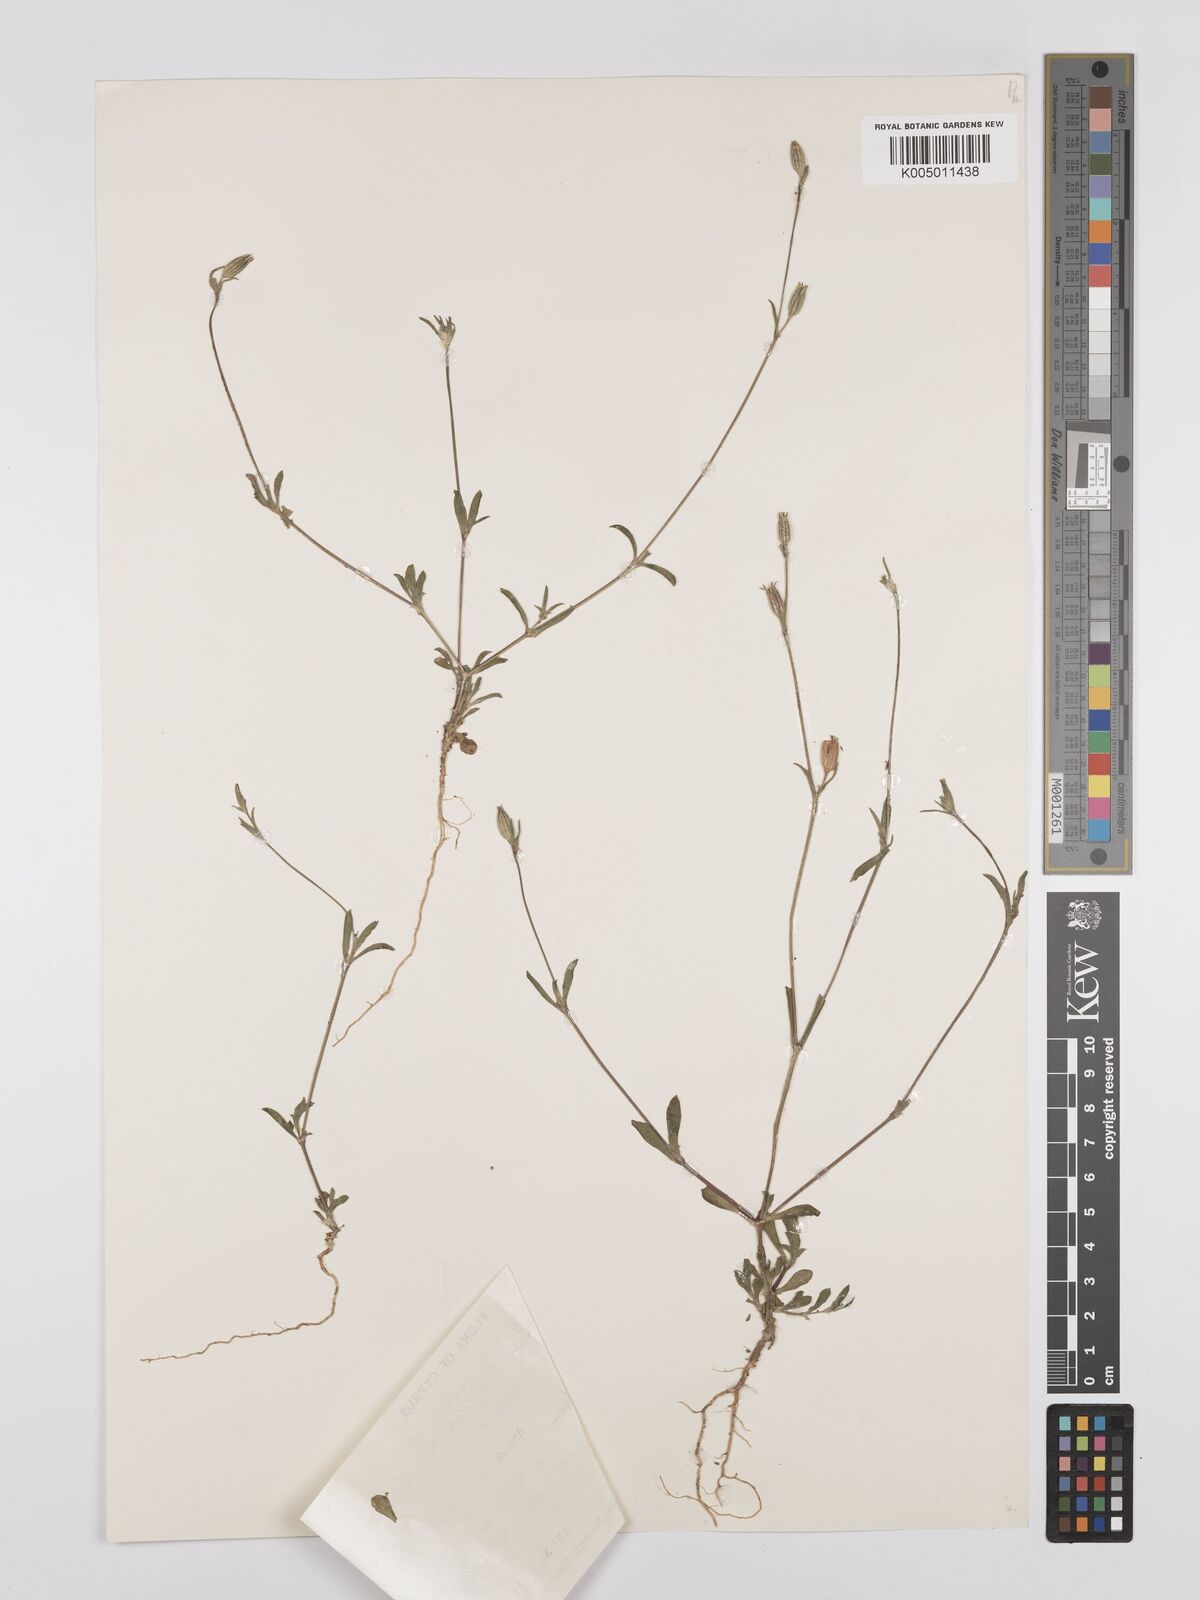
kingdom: Plantae
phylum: Tracheophyta
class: Magnoliopsida
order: Caryophyllales
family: Caryophyllaceae
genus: Silene
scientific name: Silene nocturna
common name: Mediterranean catchfly
